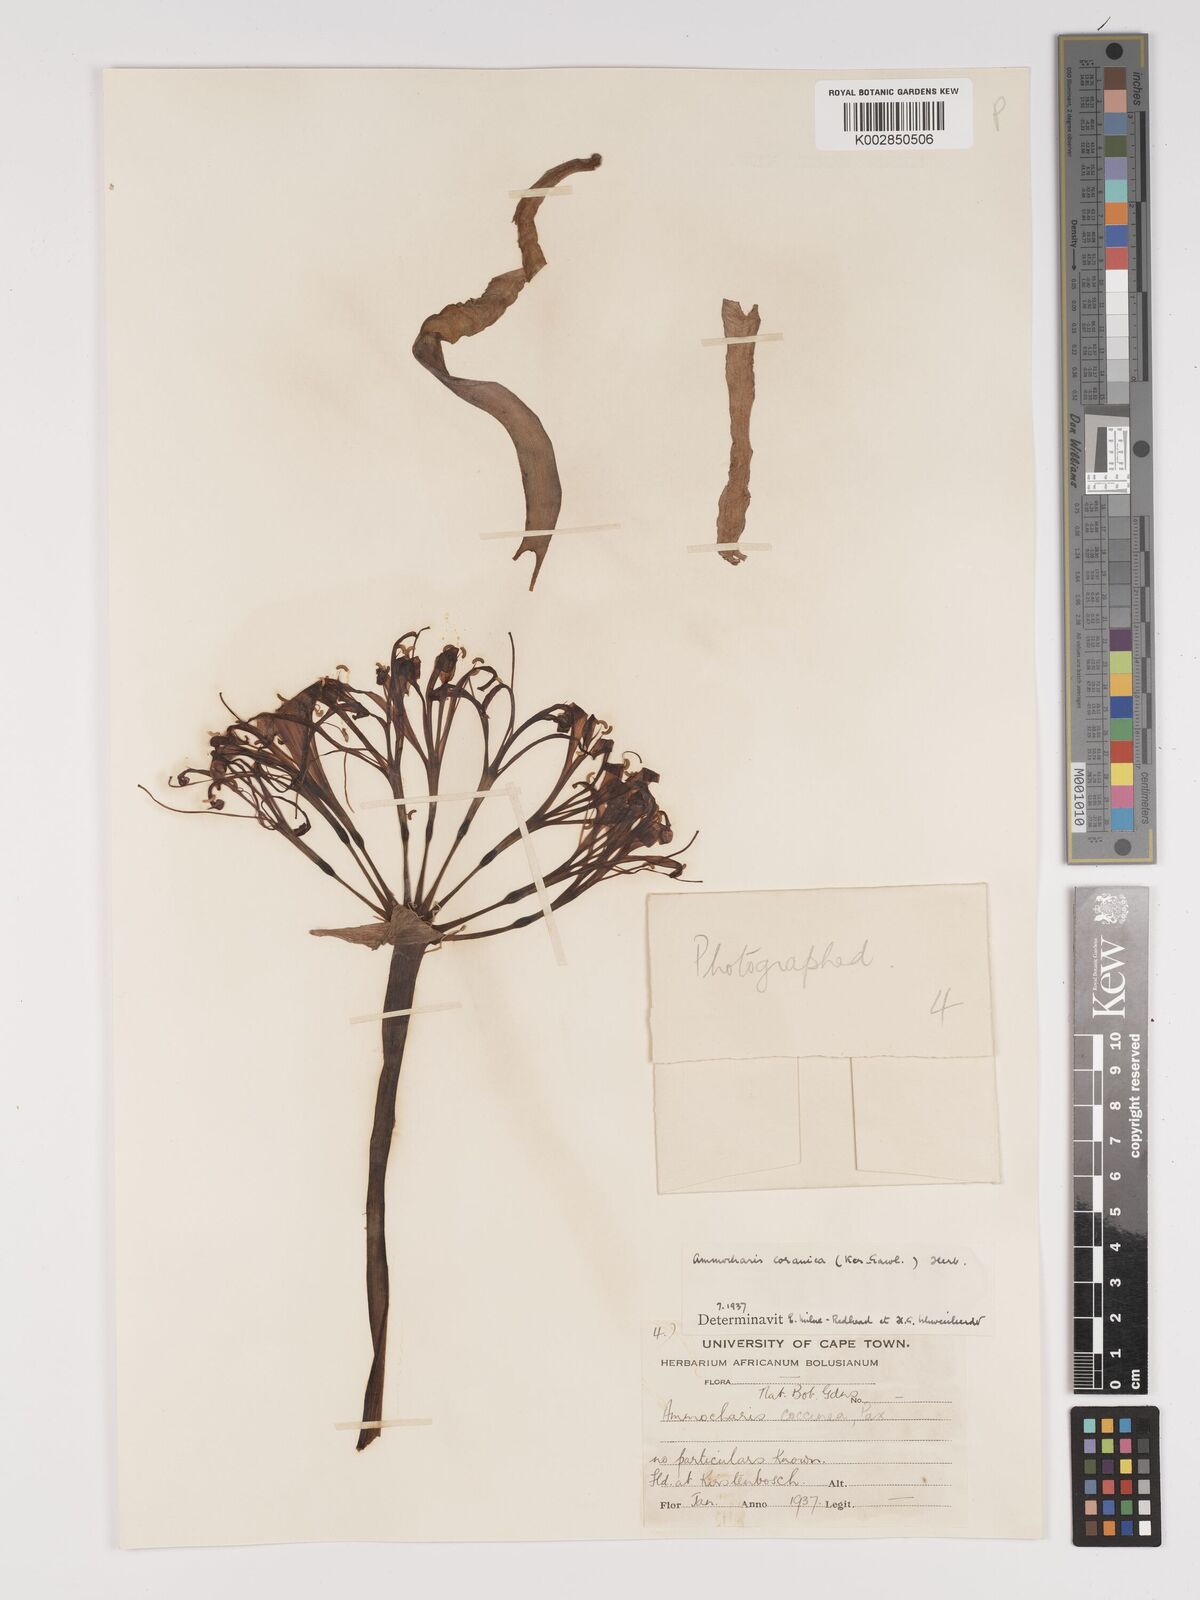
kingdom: Plantae
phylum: Tracheophyta
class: Liliopsida
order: Asparagales
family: Amaryllidaceae
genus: Ammocharis
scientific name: Ammocharis coranica
